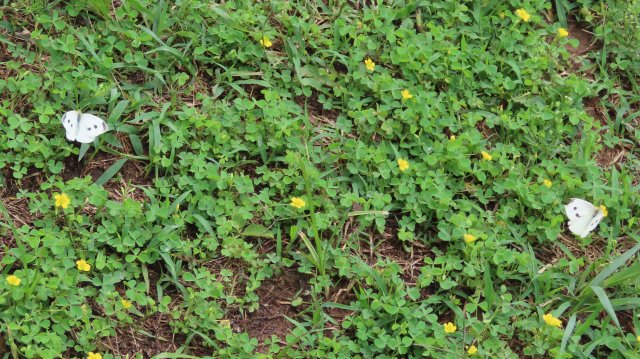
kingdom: Animalia
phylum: Arthropoda
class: Insecta
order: Lepidoptera
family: Pieridae
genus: Pieris
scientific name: Pieris rapae
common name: Cabbage White
